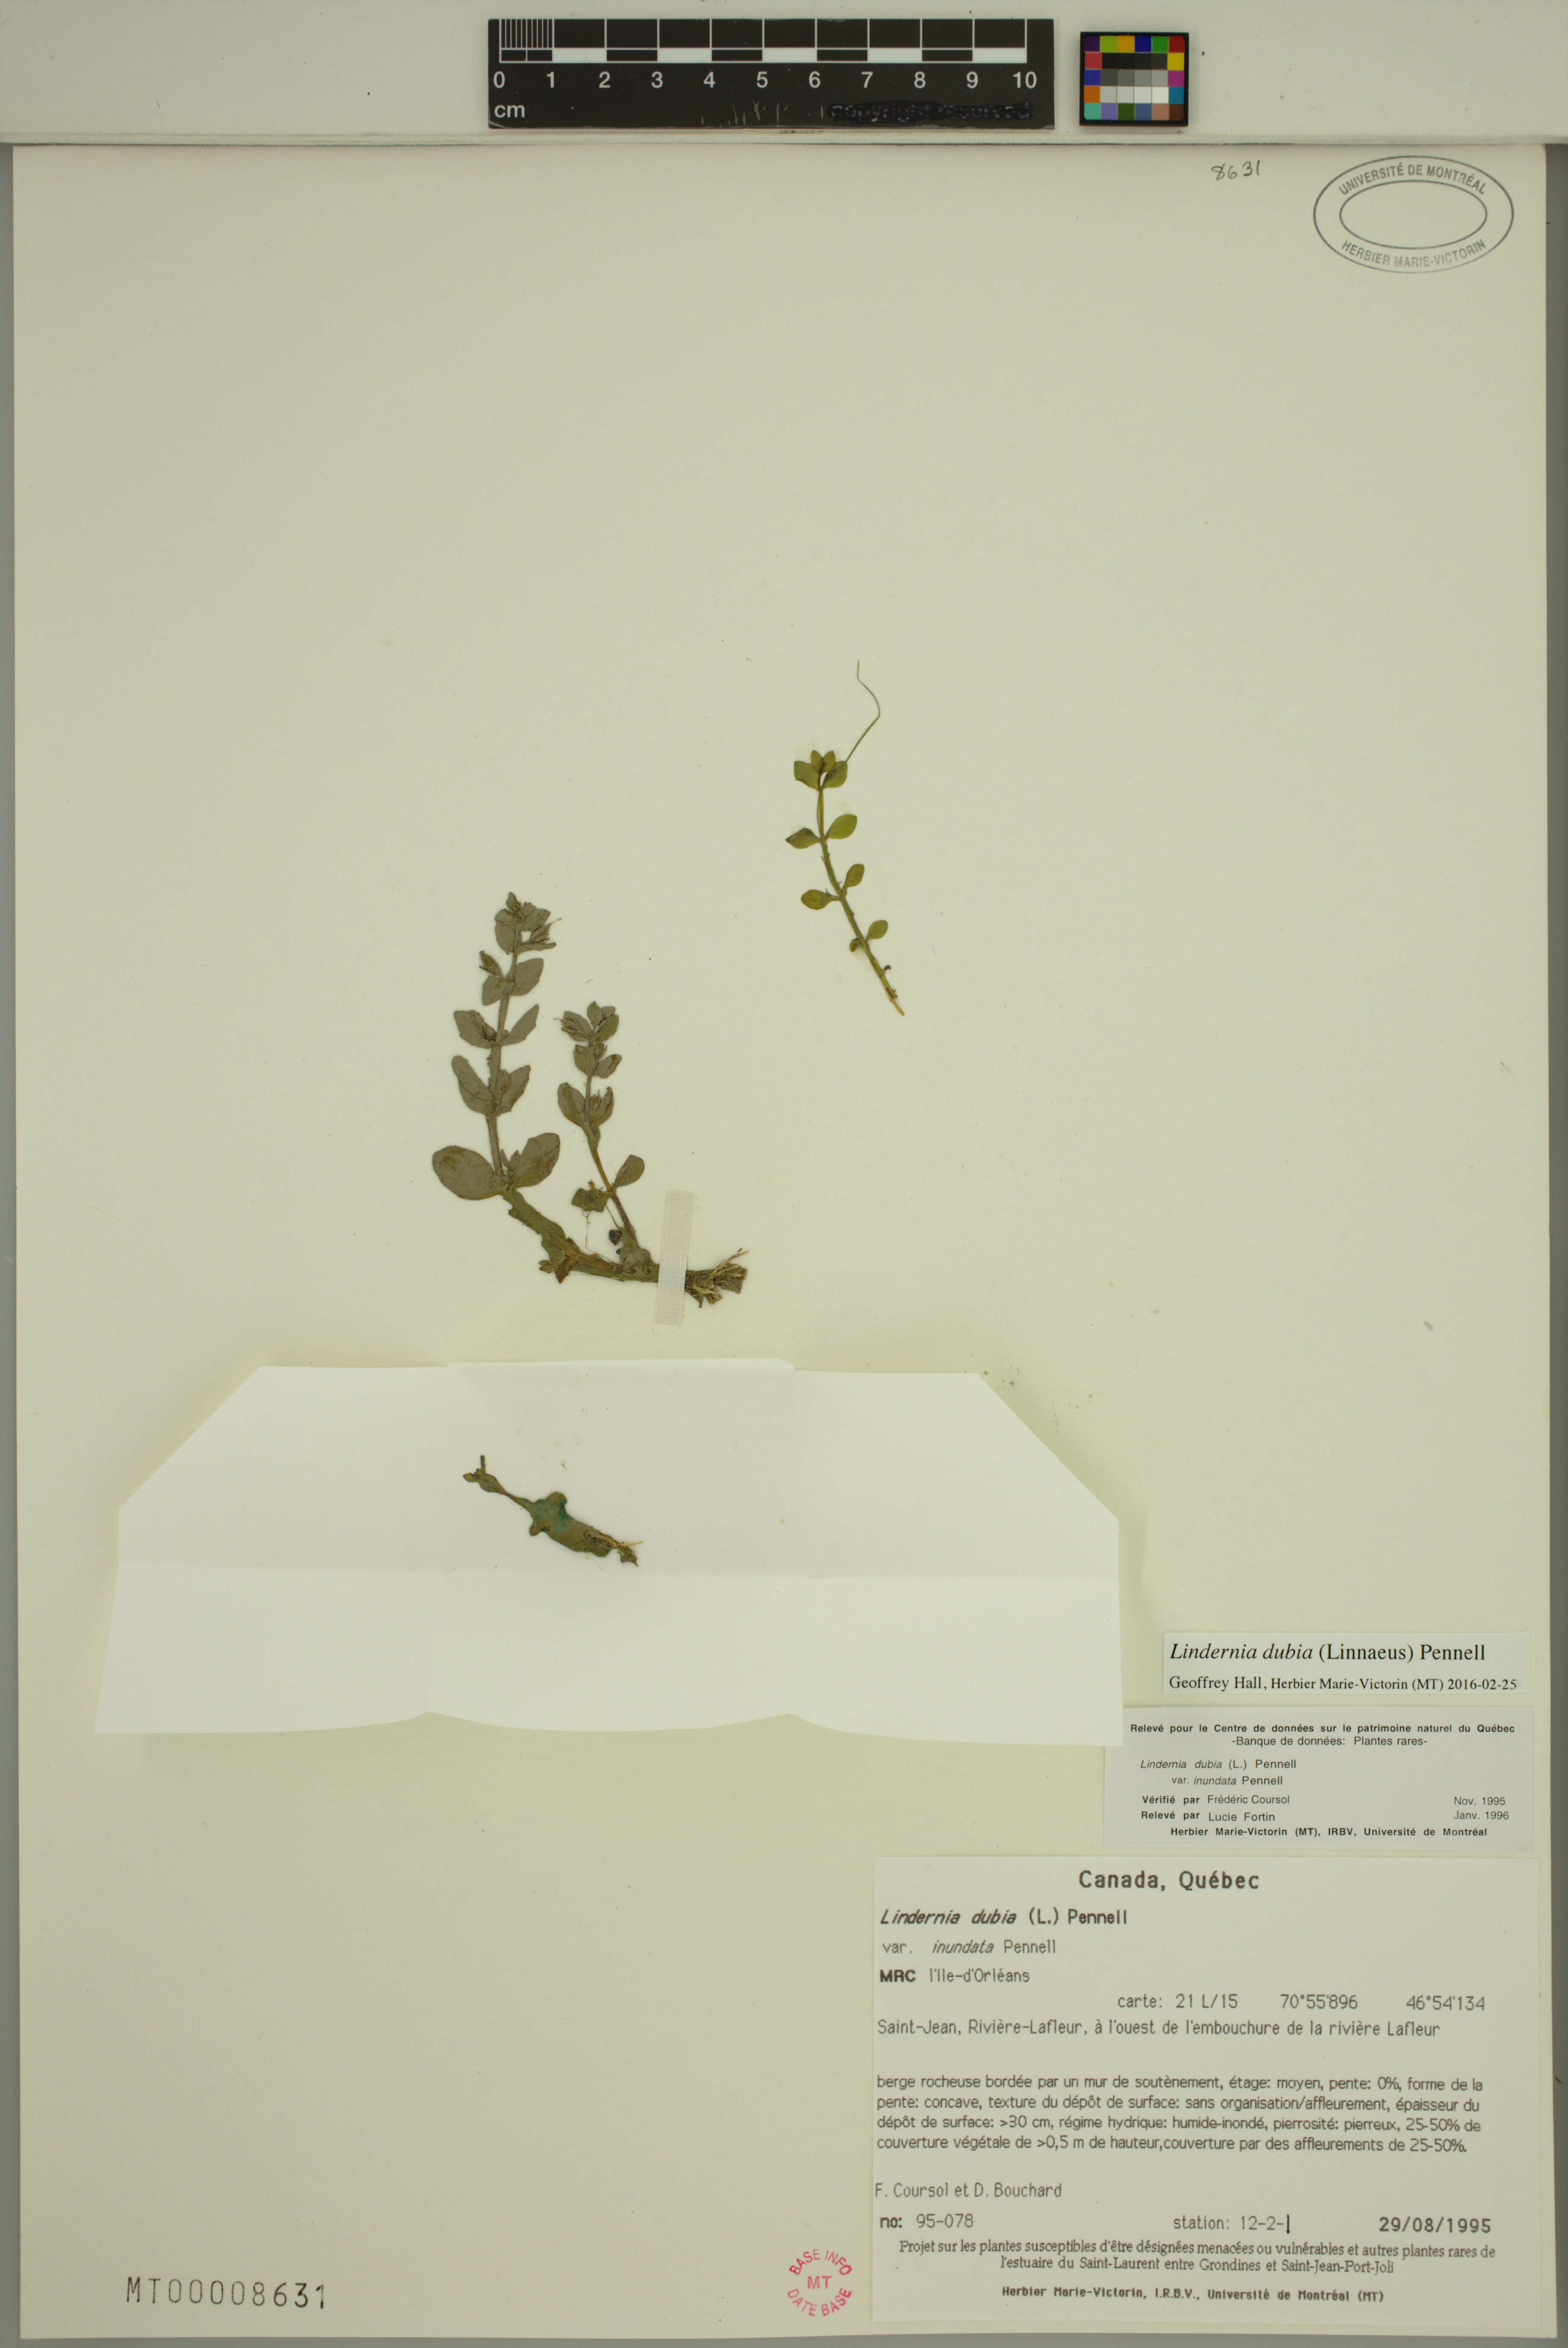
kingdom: Plantae
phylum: Tracheophyta
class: Magnoliopsida
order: Lamiales
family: Linderniaceae
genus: Lindernia
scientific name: Lindernia dubia
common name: Annual false pimpernel
